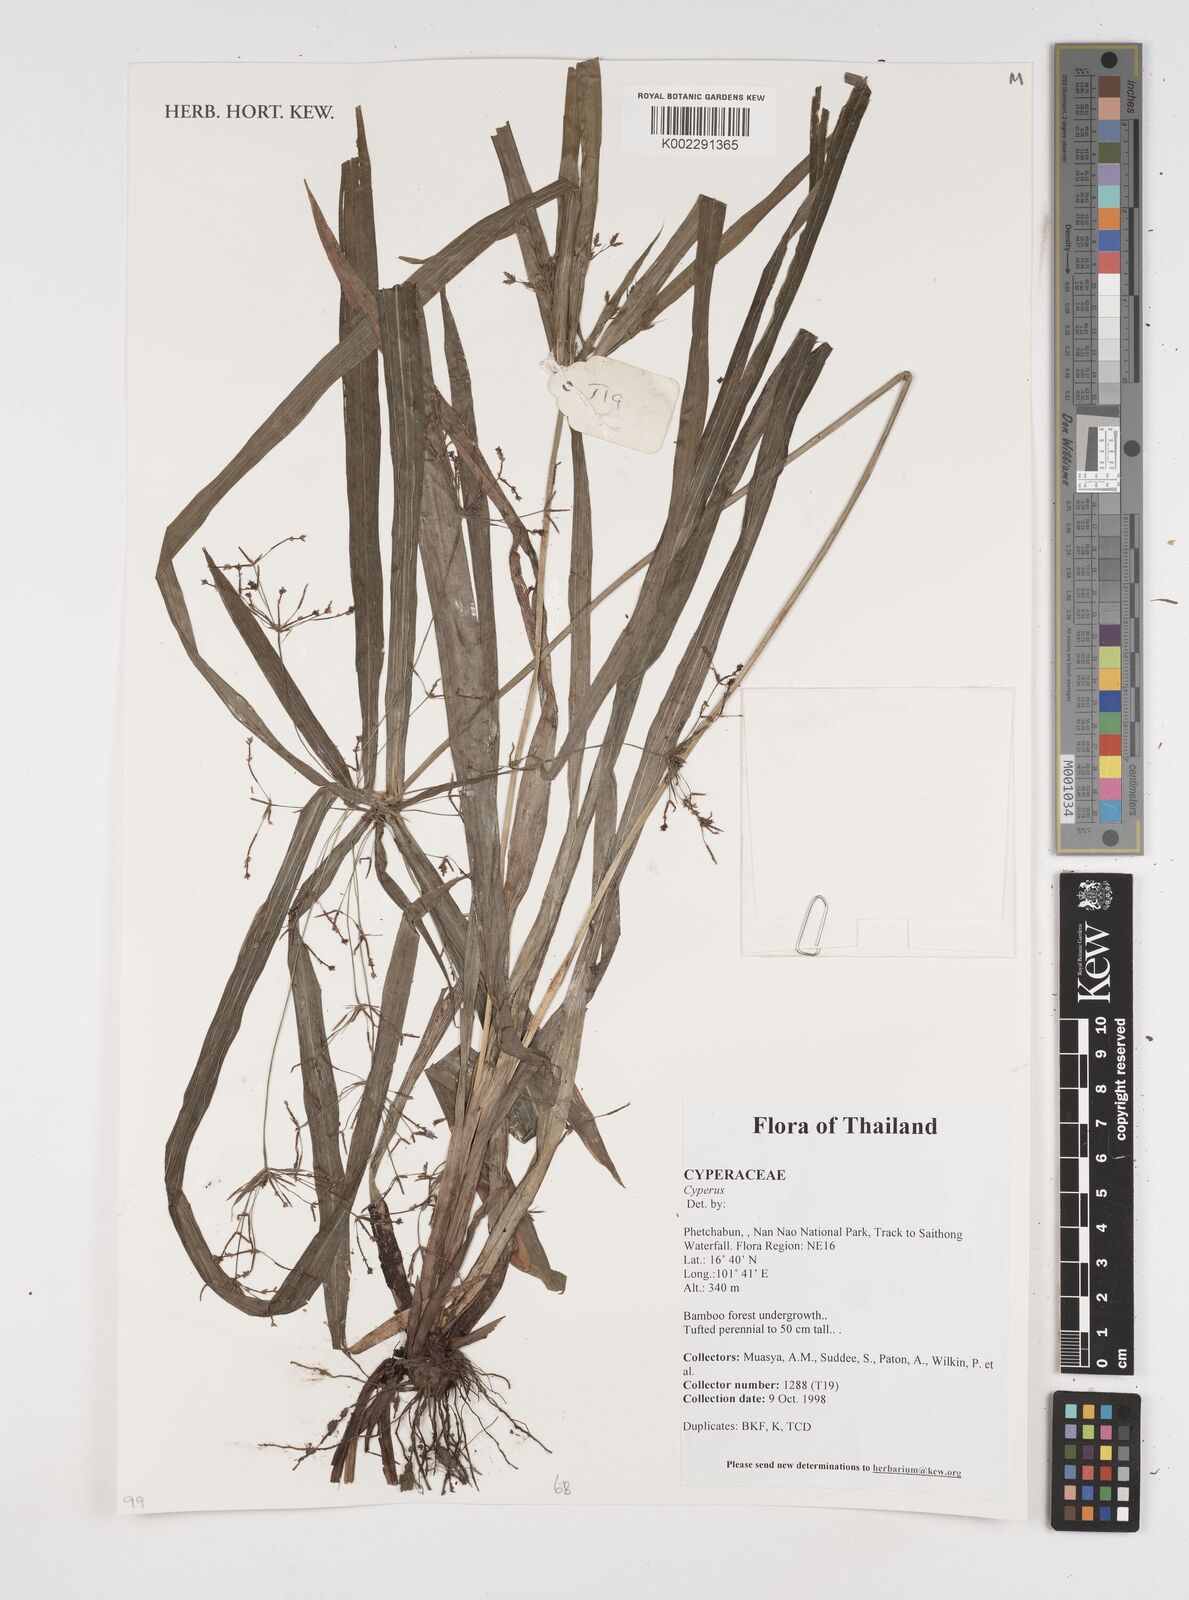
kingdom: Plantae
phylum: Tracheophyta
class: Liliopsida
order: Poales
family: Cyperaceae
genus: Cyperus
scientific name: Cyperus
